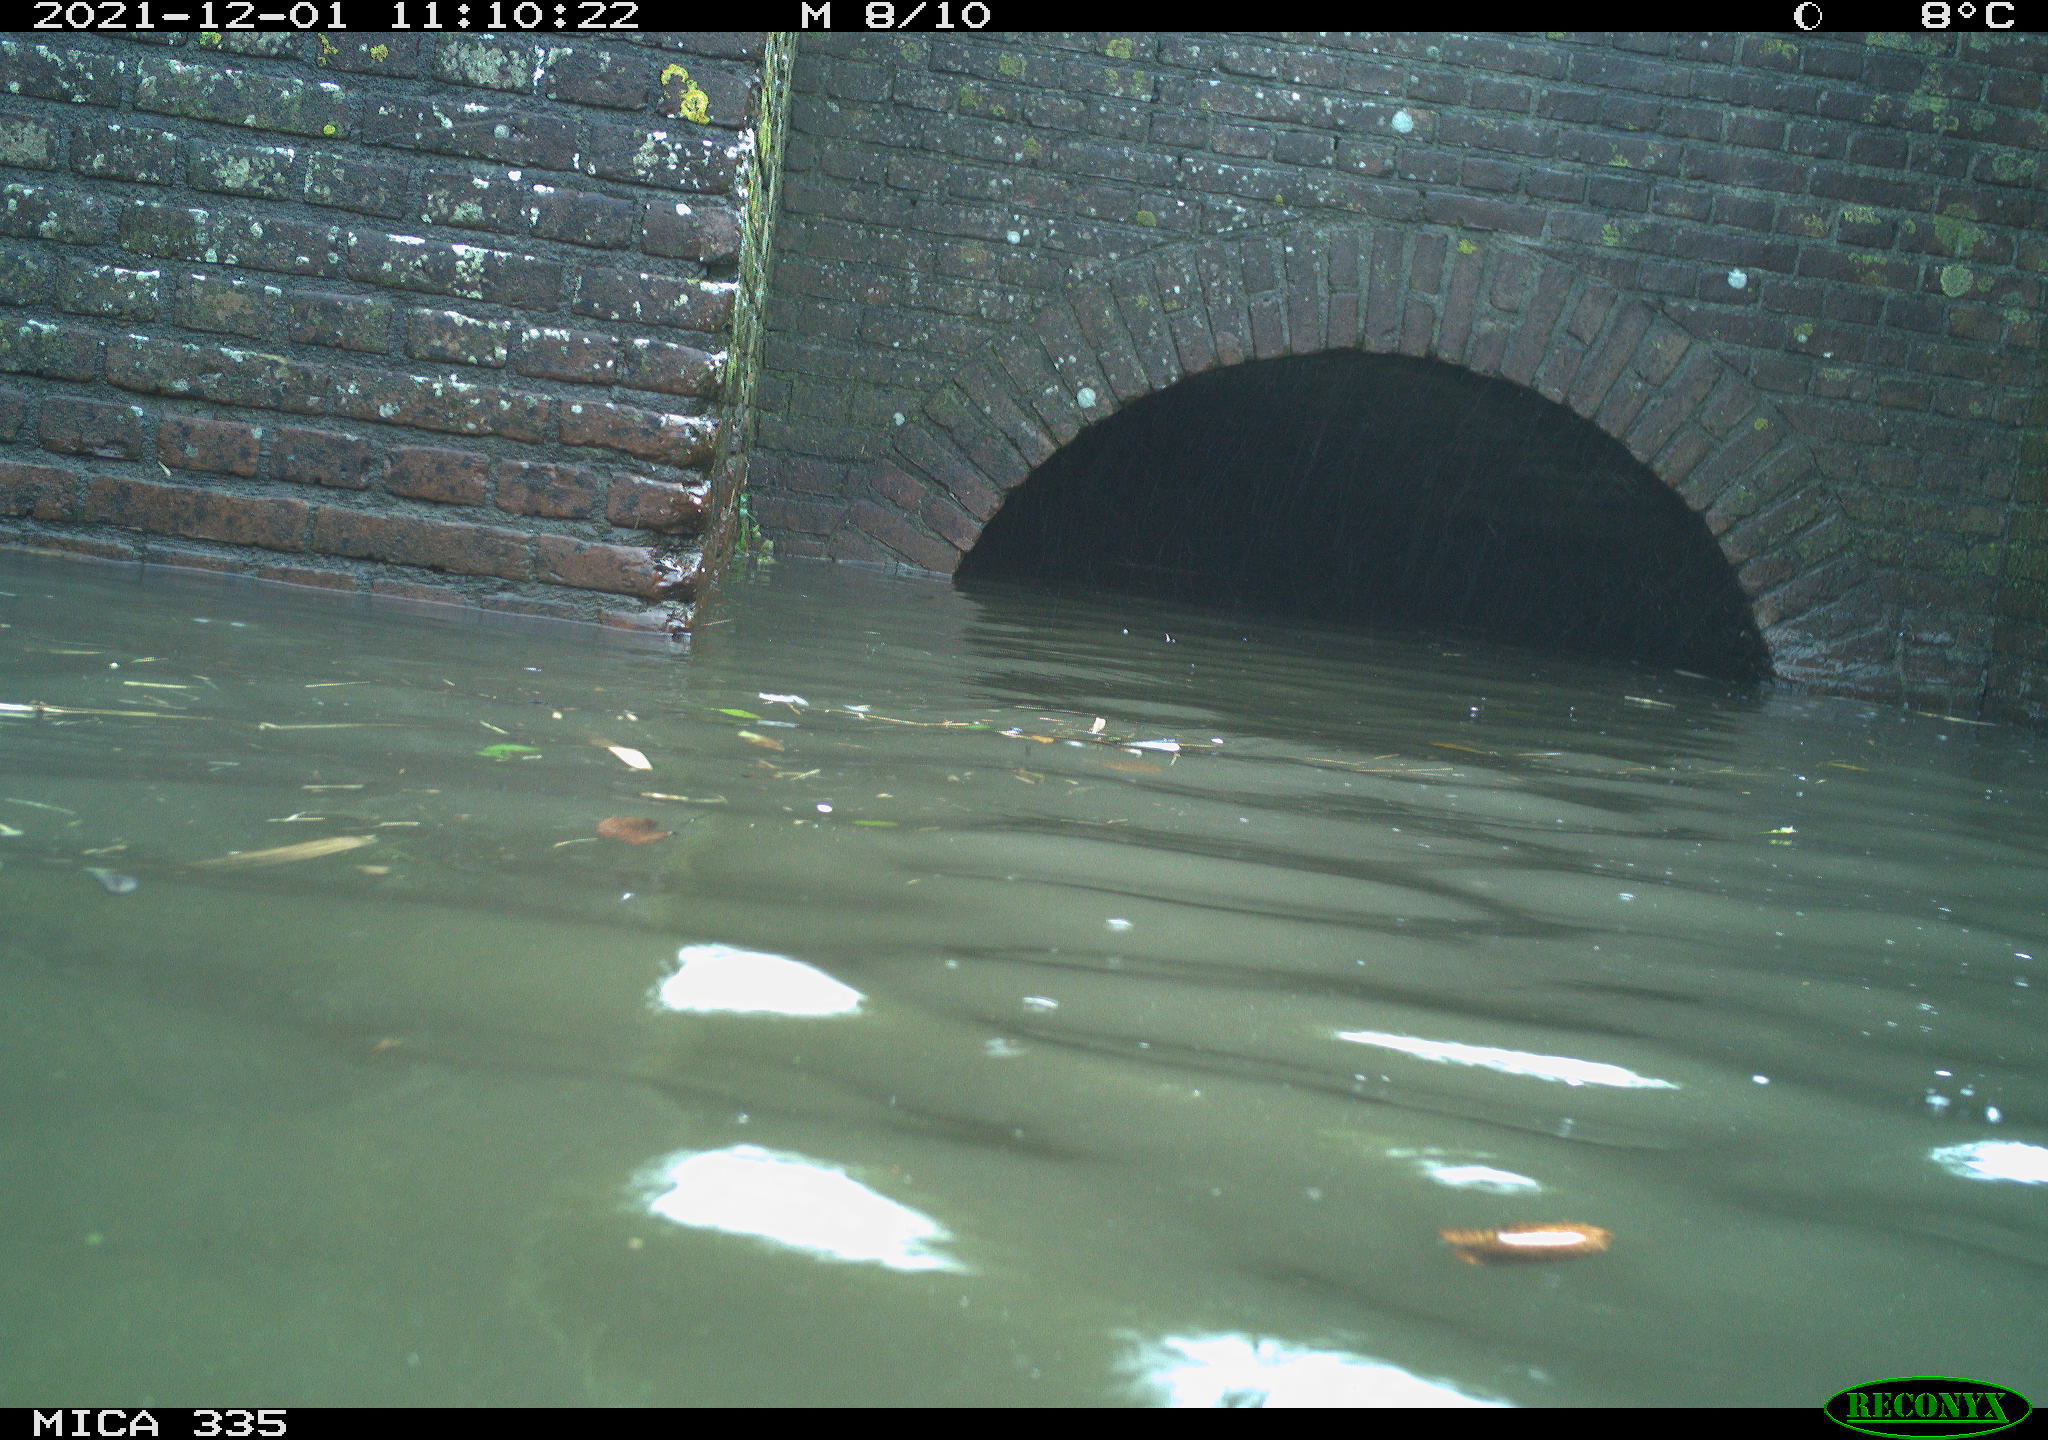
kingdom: Animalia
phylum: Chordata
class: Aves
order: Anseriformes
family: Anatidae
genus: Anas
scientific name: Anas platyrhynchos
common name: Mallard
